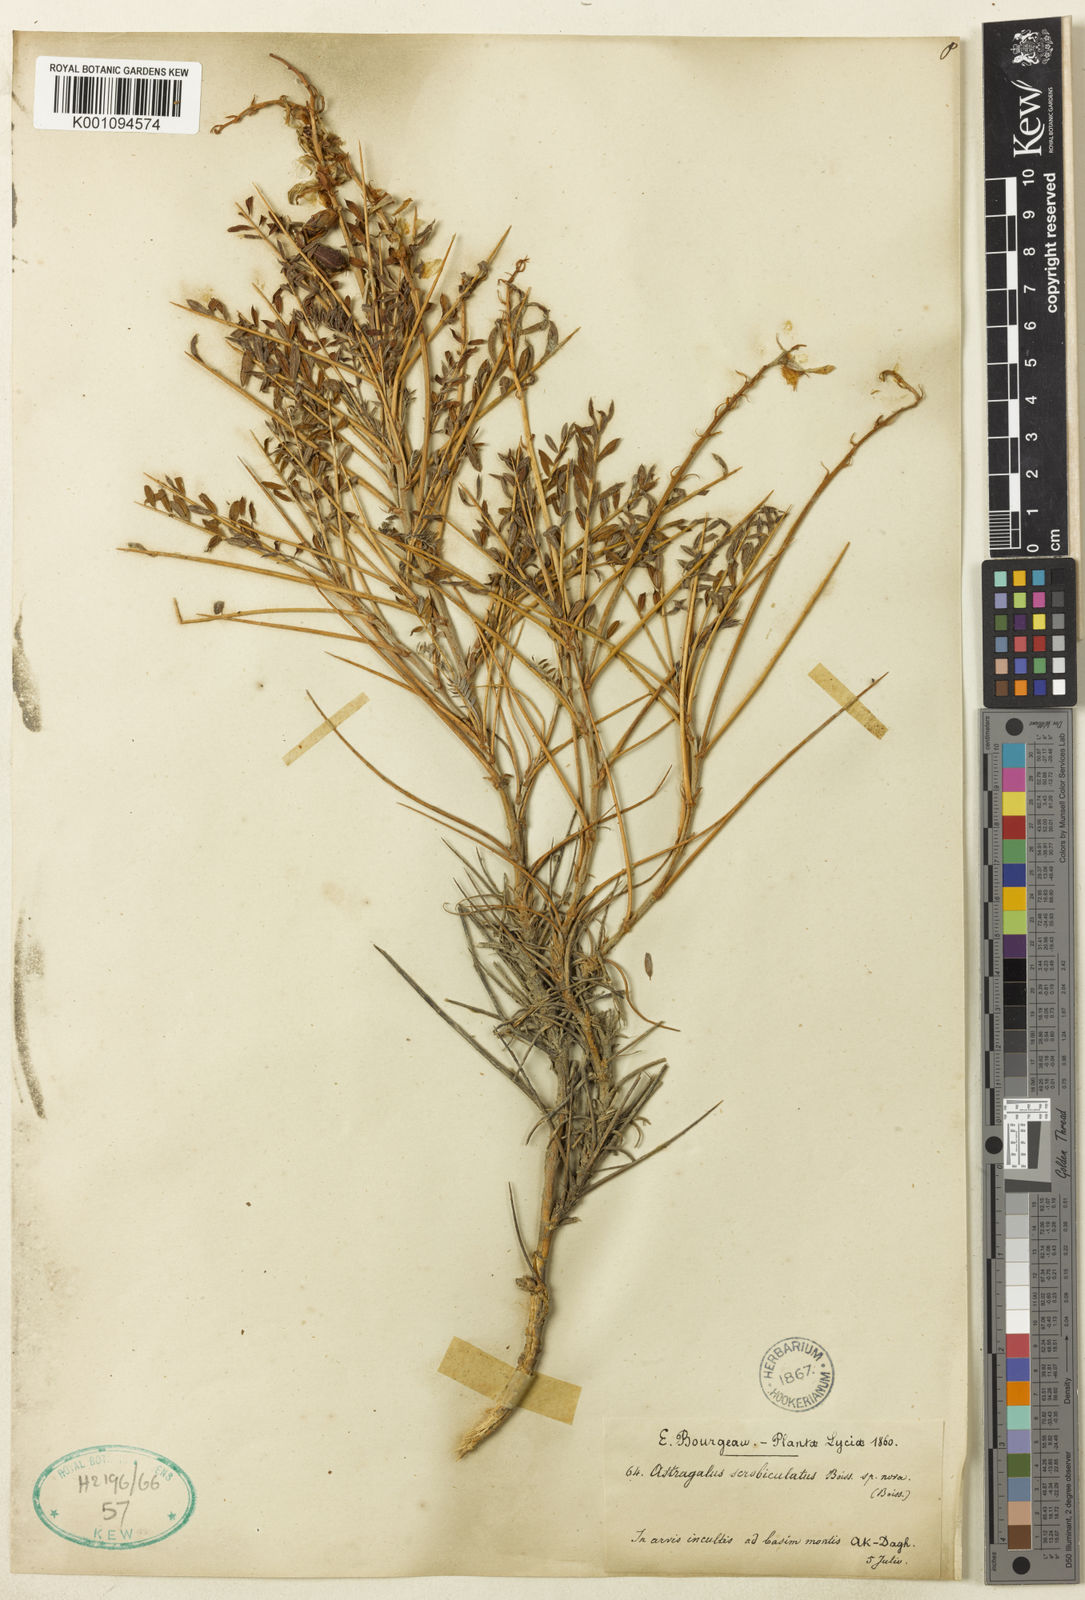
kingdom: Plantae
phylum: Tracheophyta
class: Magnoliopsida
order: Fabales
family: Fabaceae
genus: Astragalus
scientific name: Astragalus
